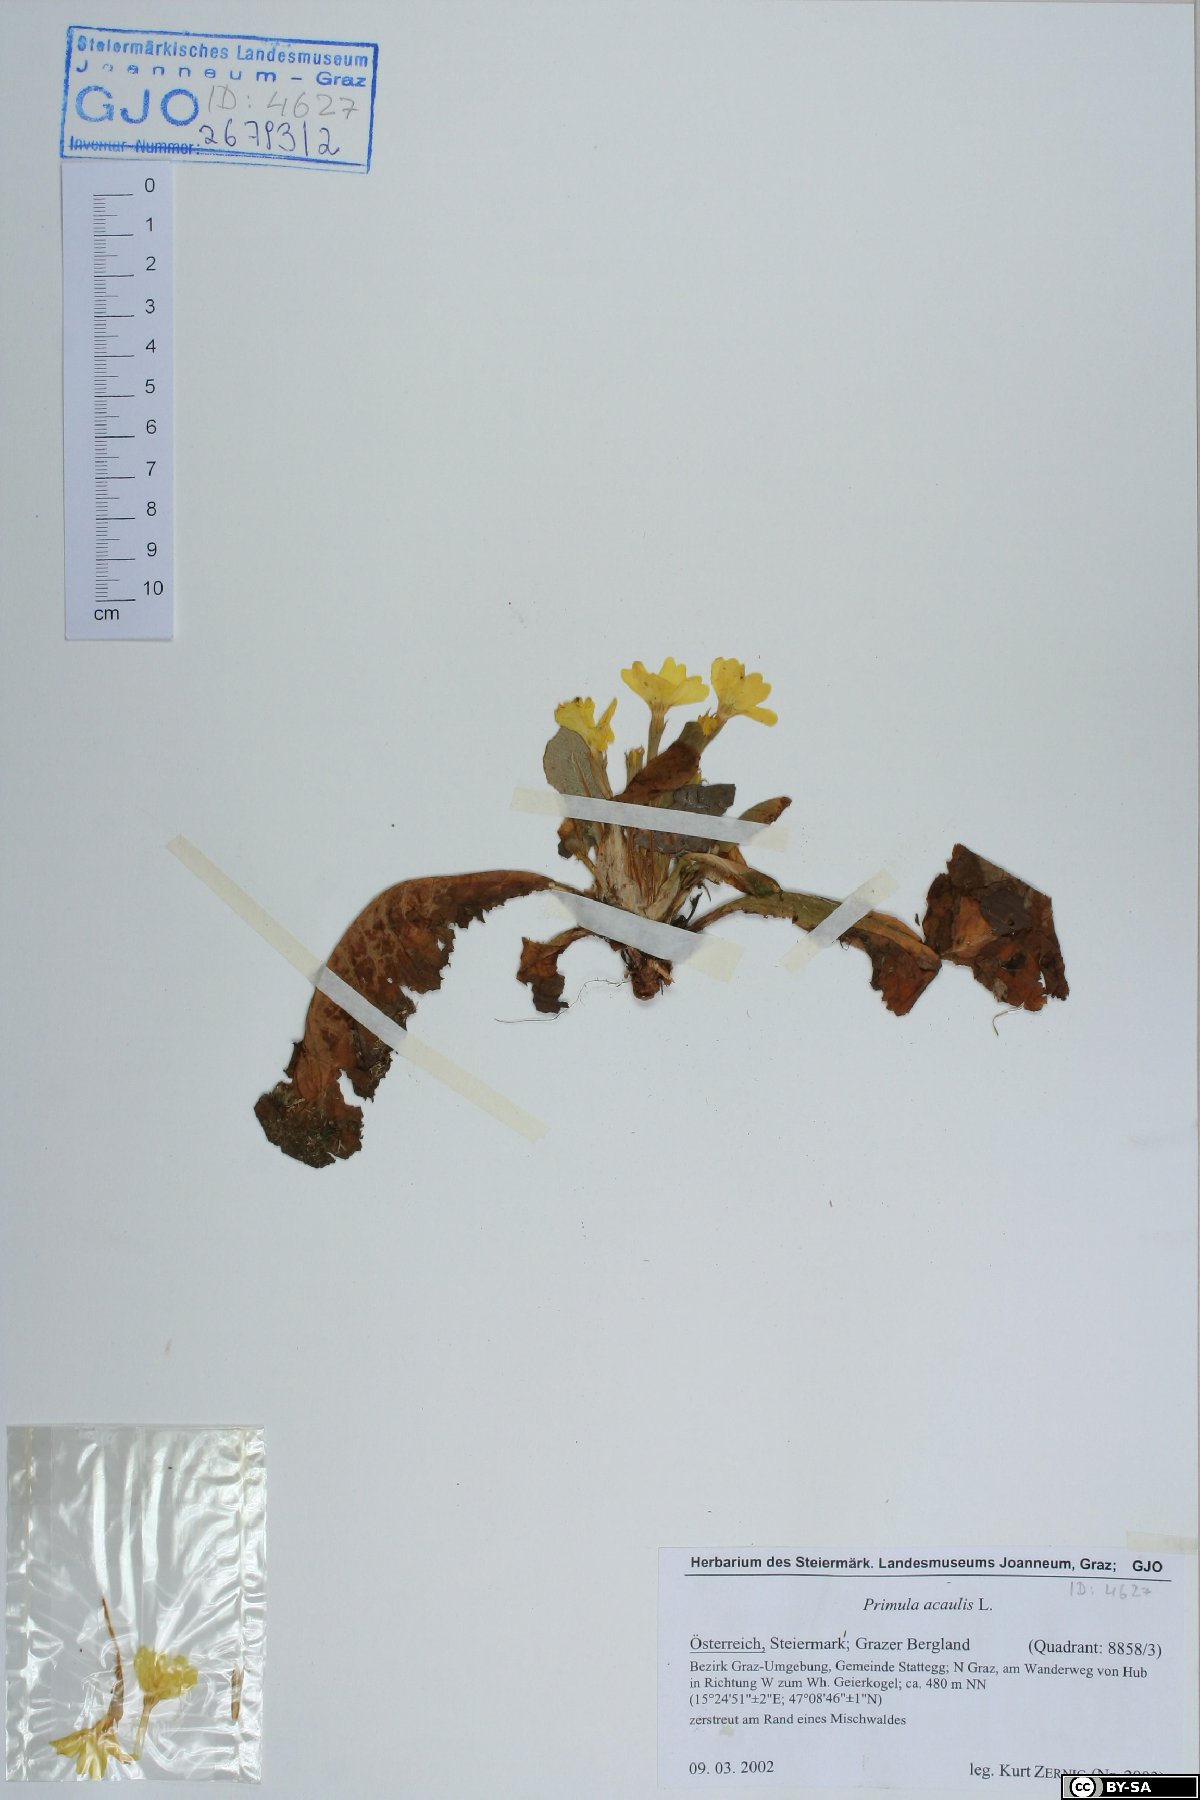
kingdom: Plantae
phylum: Tracheophyta
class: Magnoliopsida
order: Ericales
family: Primulaceae
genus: Primula
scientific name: Primula vulgaris
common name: Primrose
